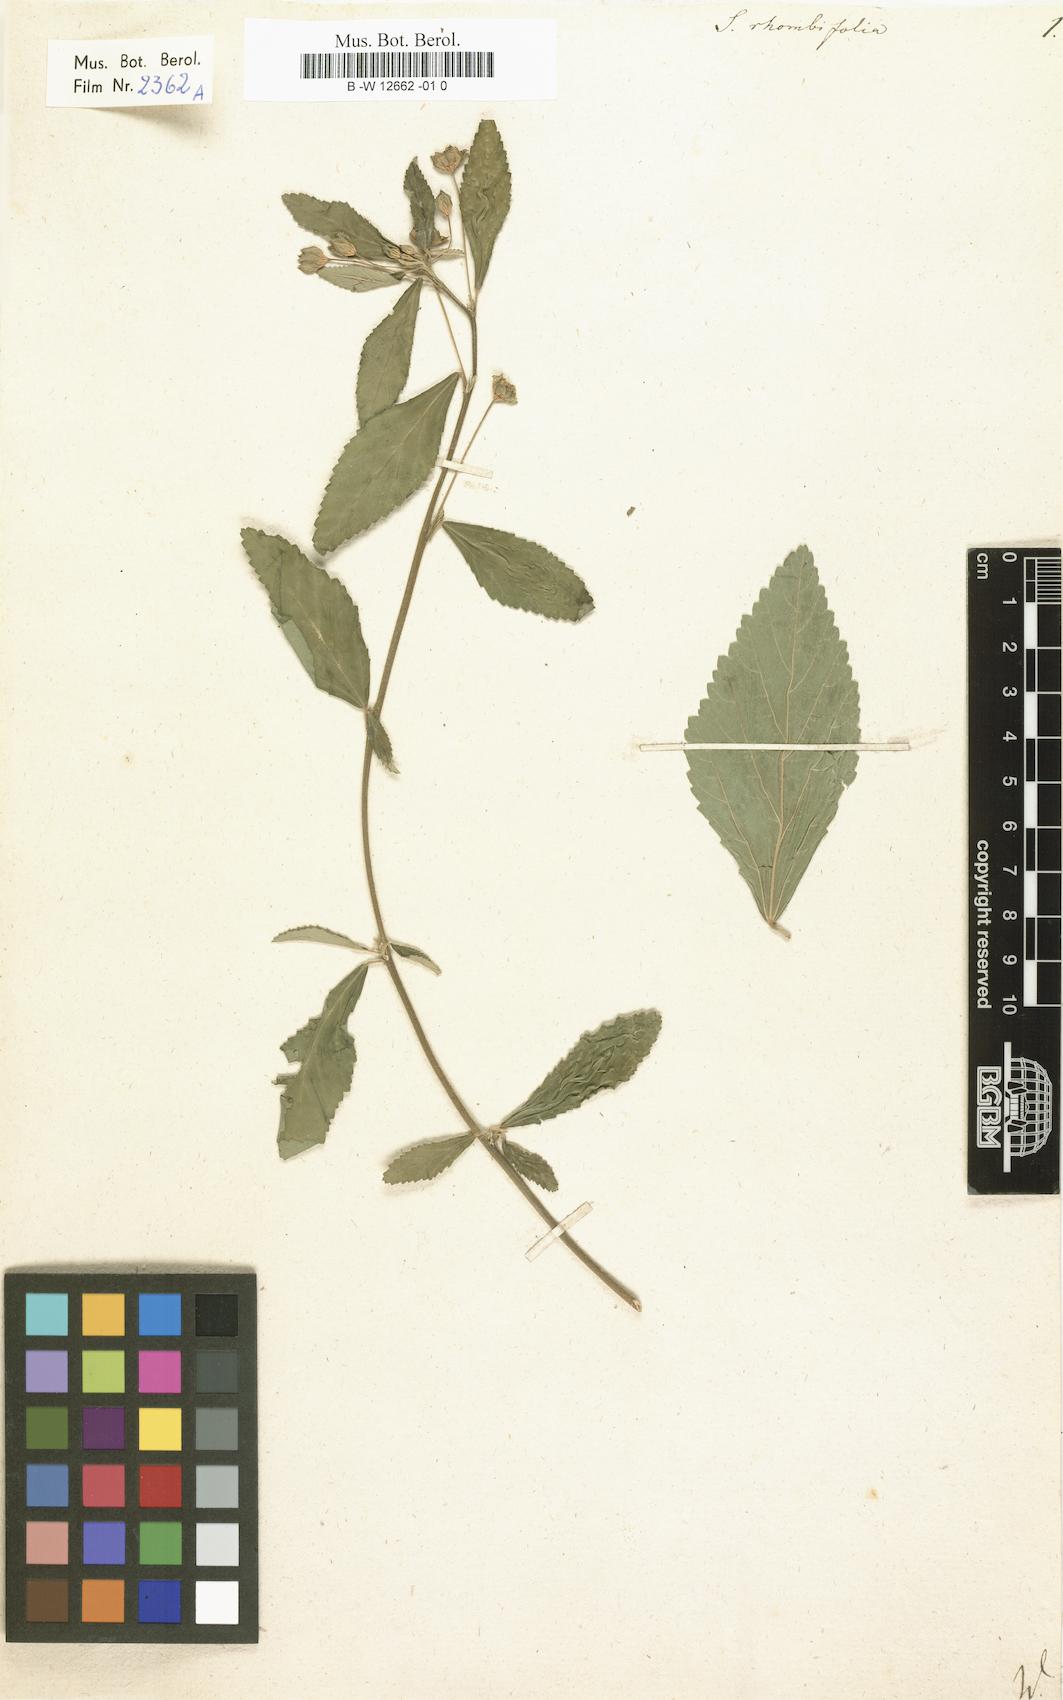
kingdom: Plantae
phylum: Tracheophyta
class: Magnoliopsida
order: Malvales
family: Malvaceae
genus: Sida
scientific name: Sida rhombifolia
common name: Queensland-hemp
